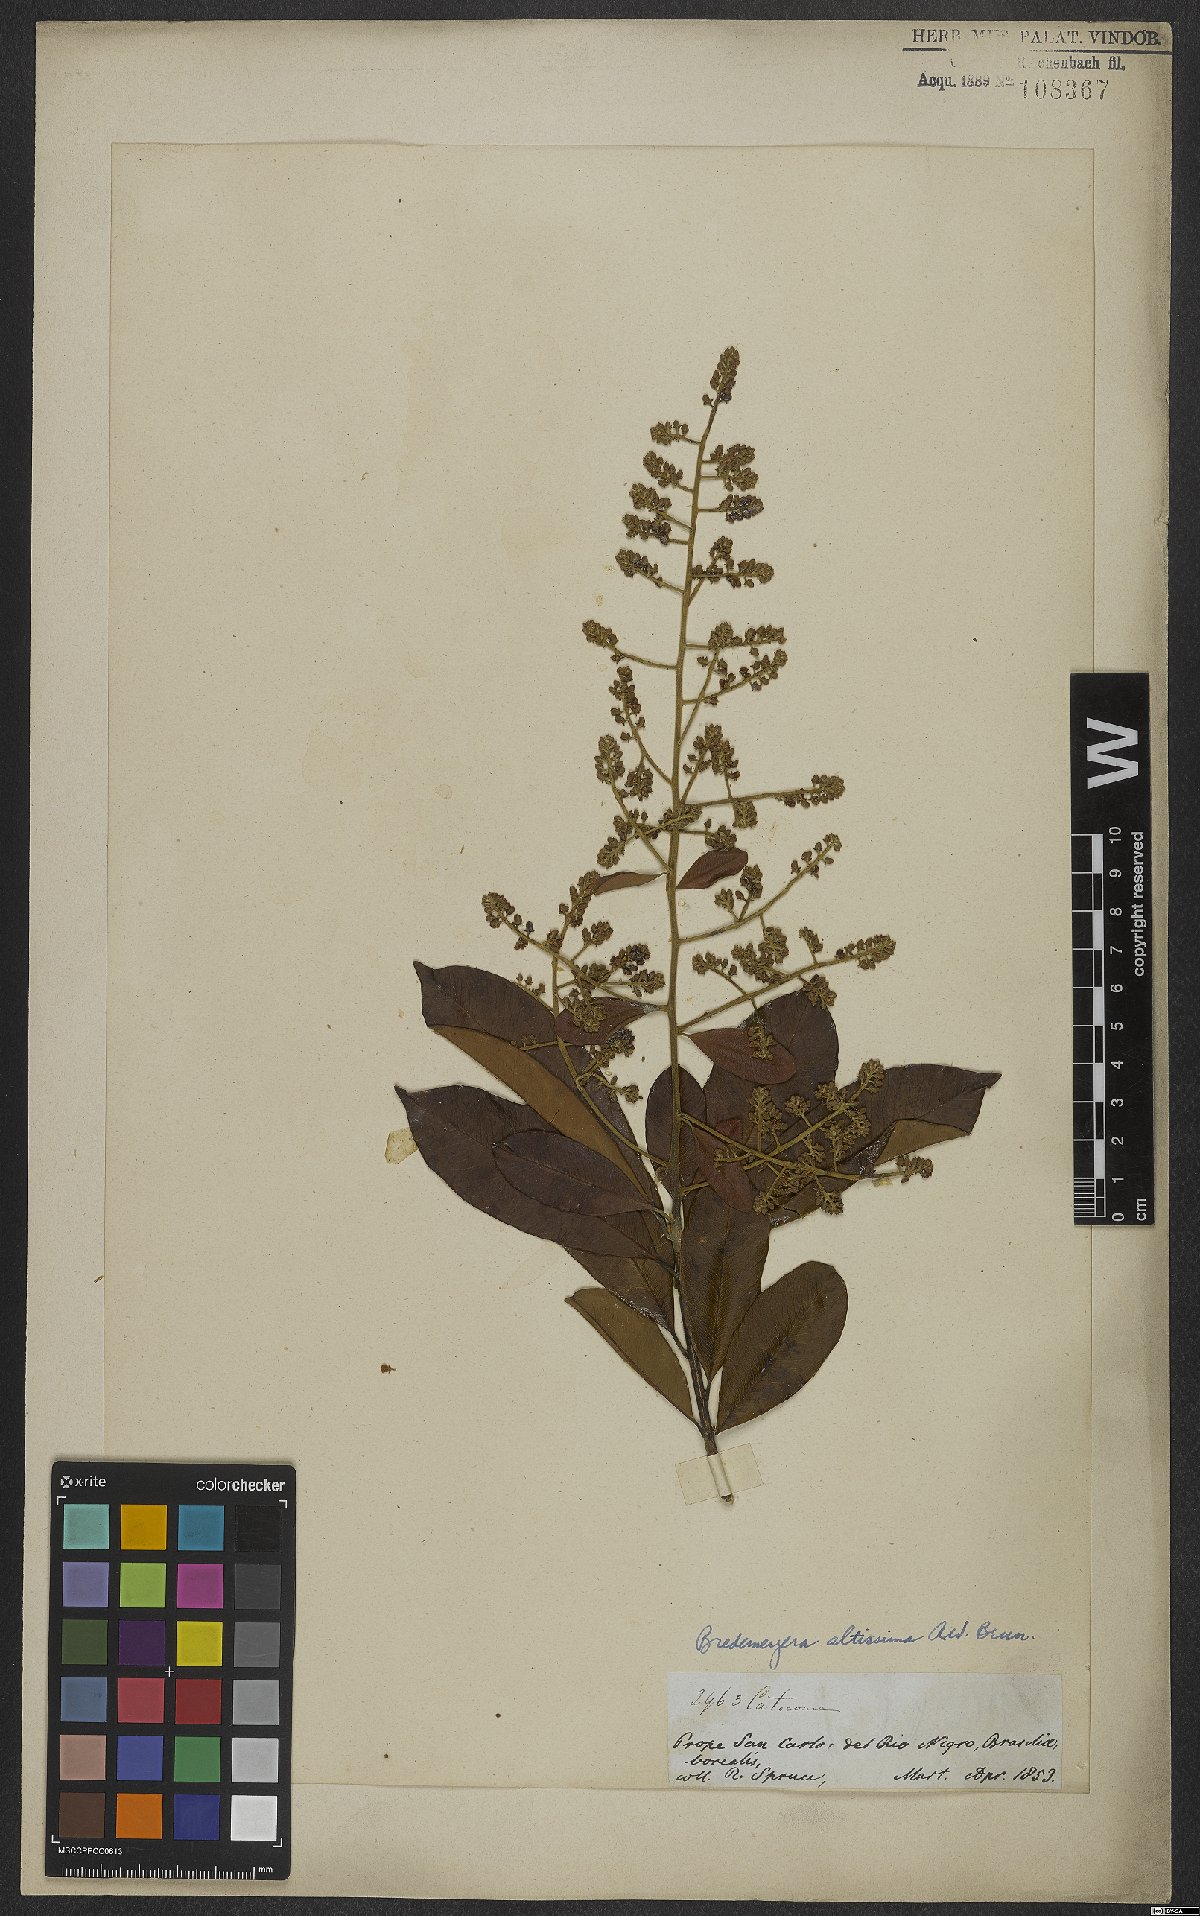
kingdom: Plantae
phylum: Tracheophyta
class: Magnoliopsida
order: Fabales
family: Polygalaceae
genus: Bredemeyera
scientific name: Bredemeyera divaricata
